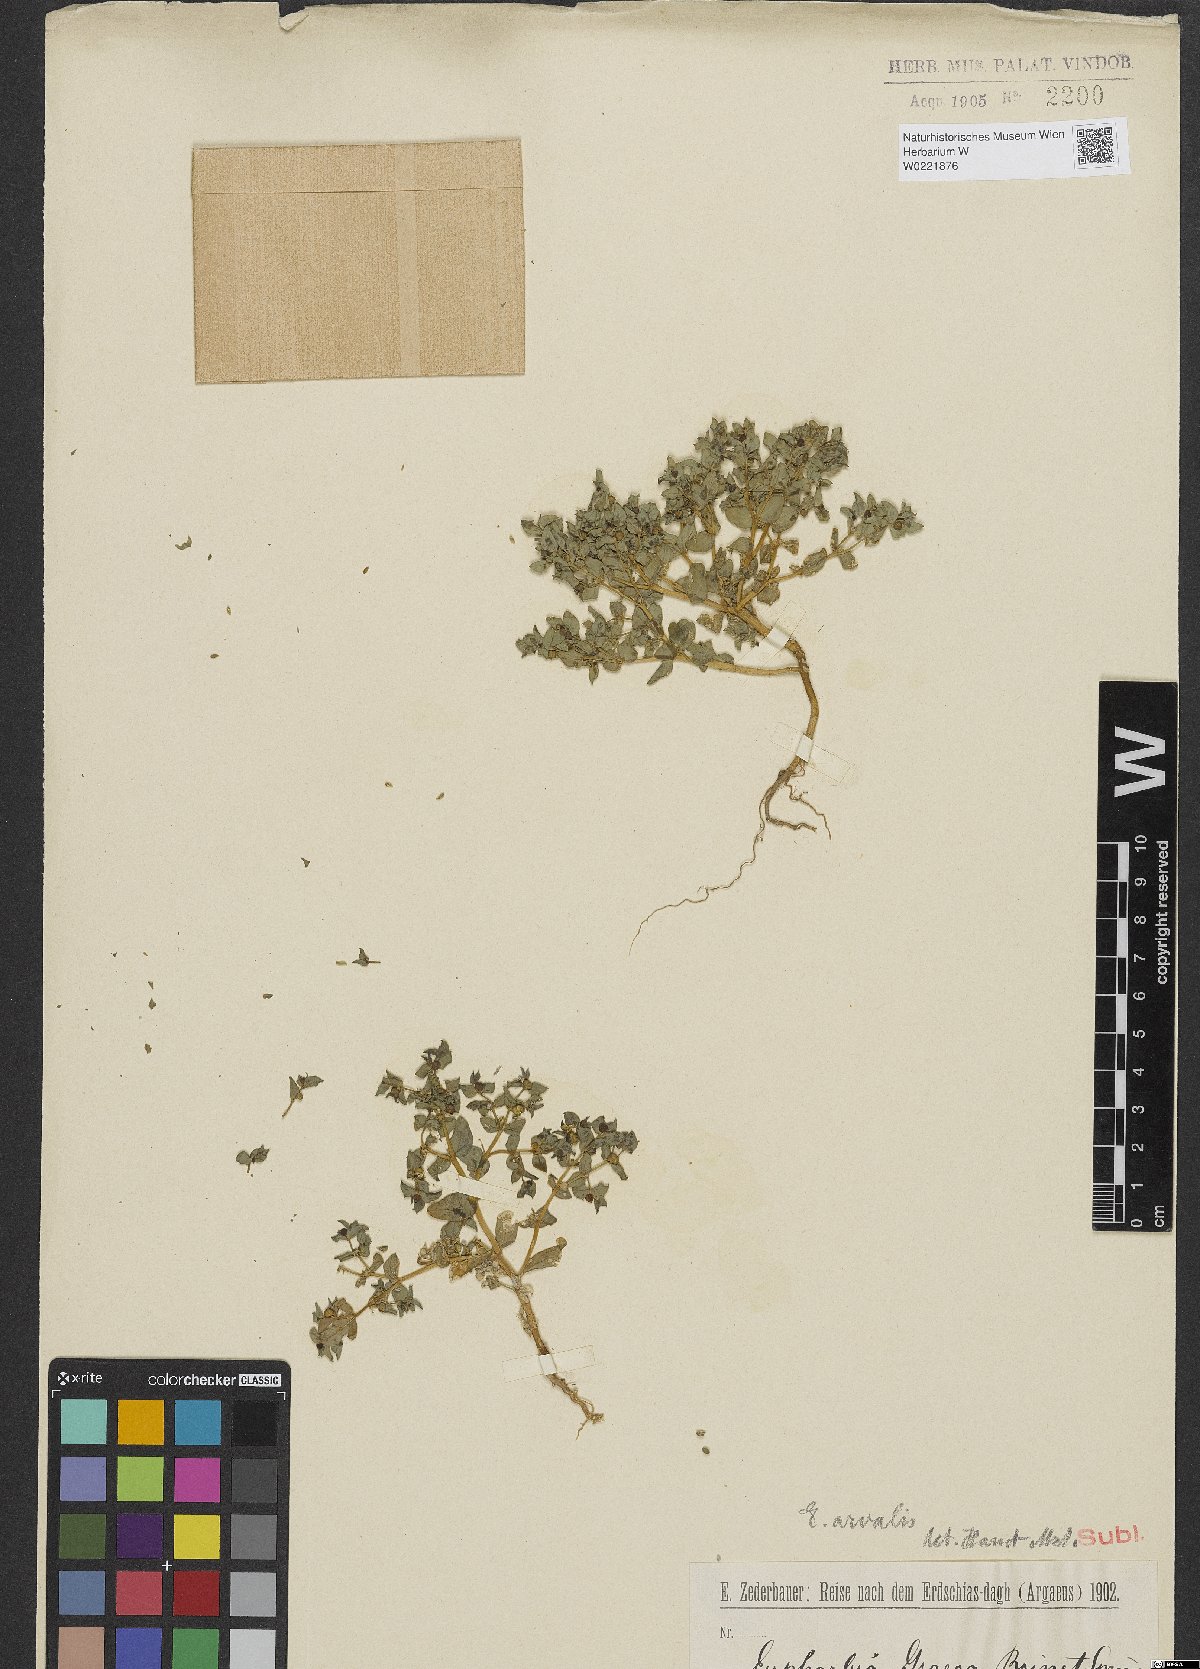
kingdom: Plantae
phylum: Tracheophyta
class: Magnoliopsida
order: Malpighiales
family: Euphorbiaceae
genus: Euphorbia
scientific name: Euphorbia arvalis
